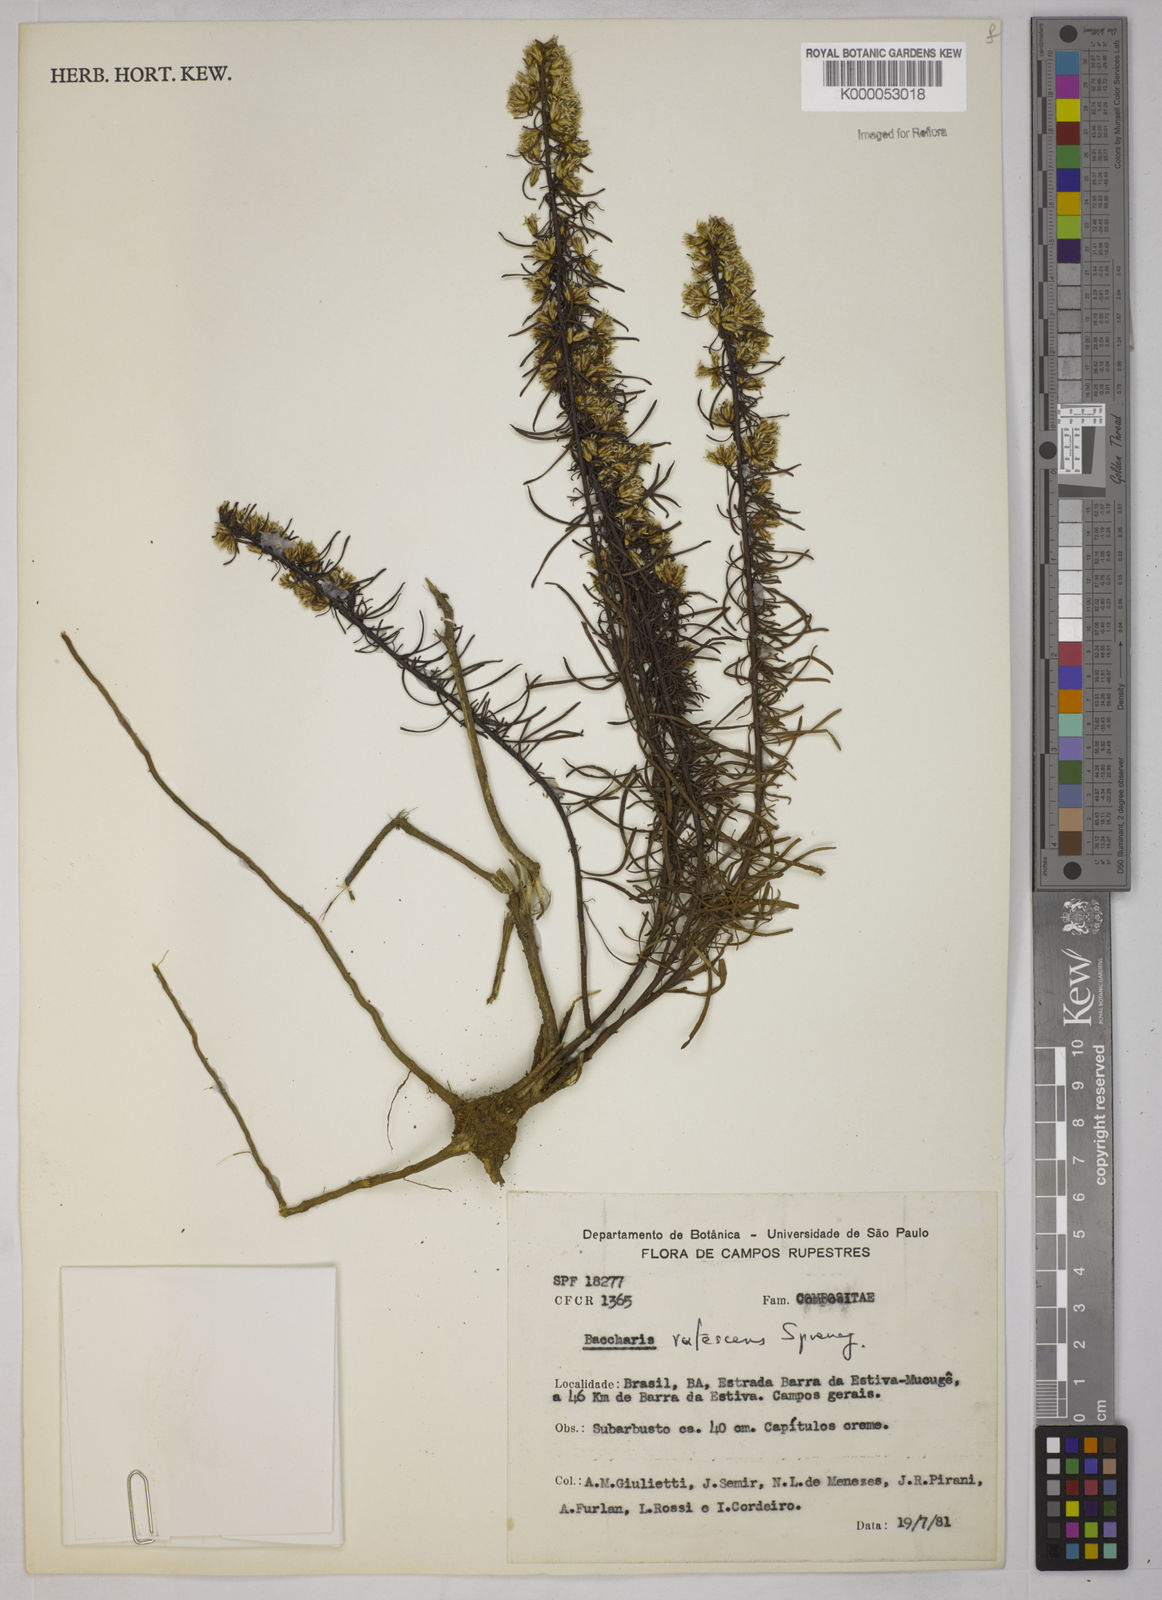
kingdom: Plantae
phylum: Tracheophyta
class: Magnoliopsida
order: Asterales
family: Asteraceae
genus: Baccharis
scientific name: Baccharis leptocephala
